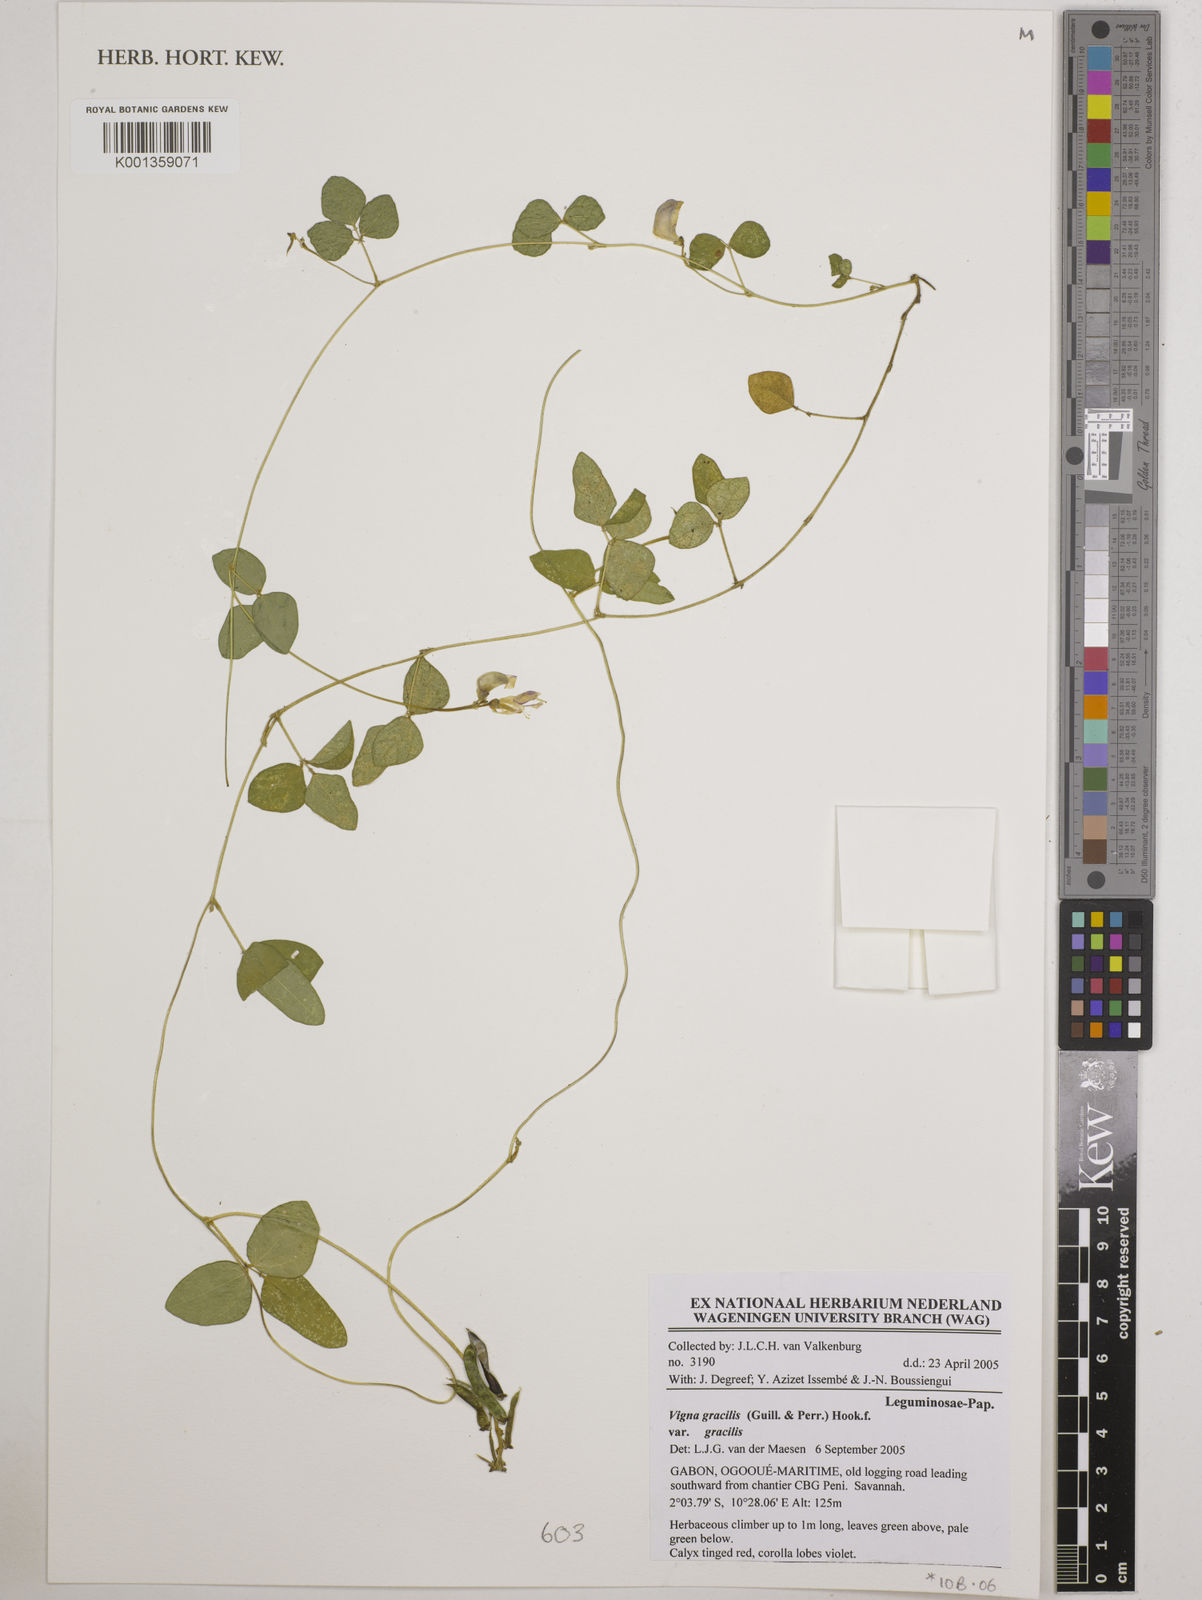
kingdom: Plantae
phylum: Tracheophyta
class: Magnoliopsida
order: Fabales
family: Fabaceae
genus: Vigna
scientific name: Vigna gracilis
